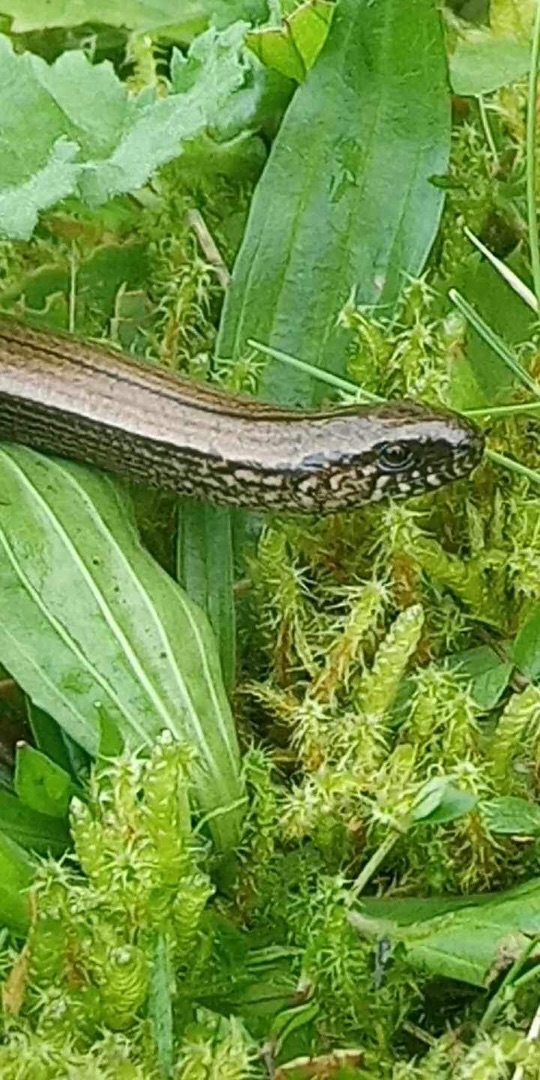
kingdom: Animalia
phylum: Chordata
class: Squamata
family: Anguidae
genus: Anguis
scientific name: Anguis fragilis
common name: Stålorm
